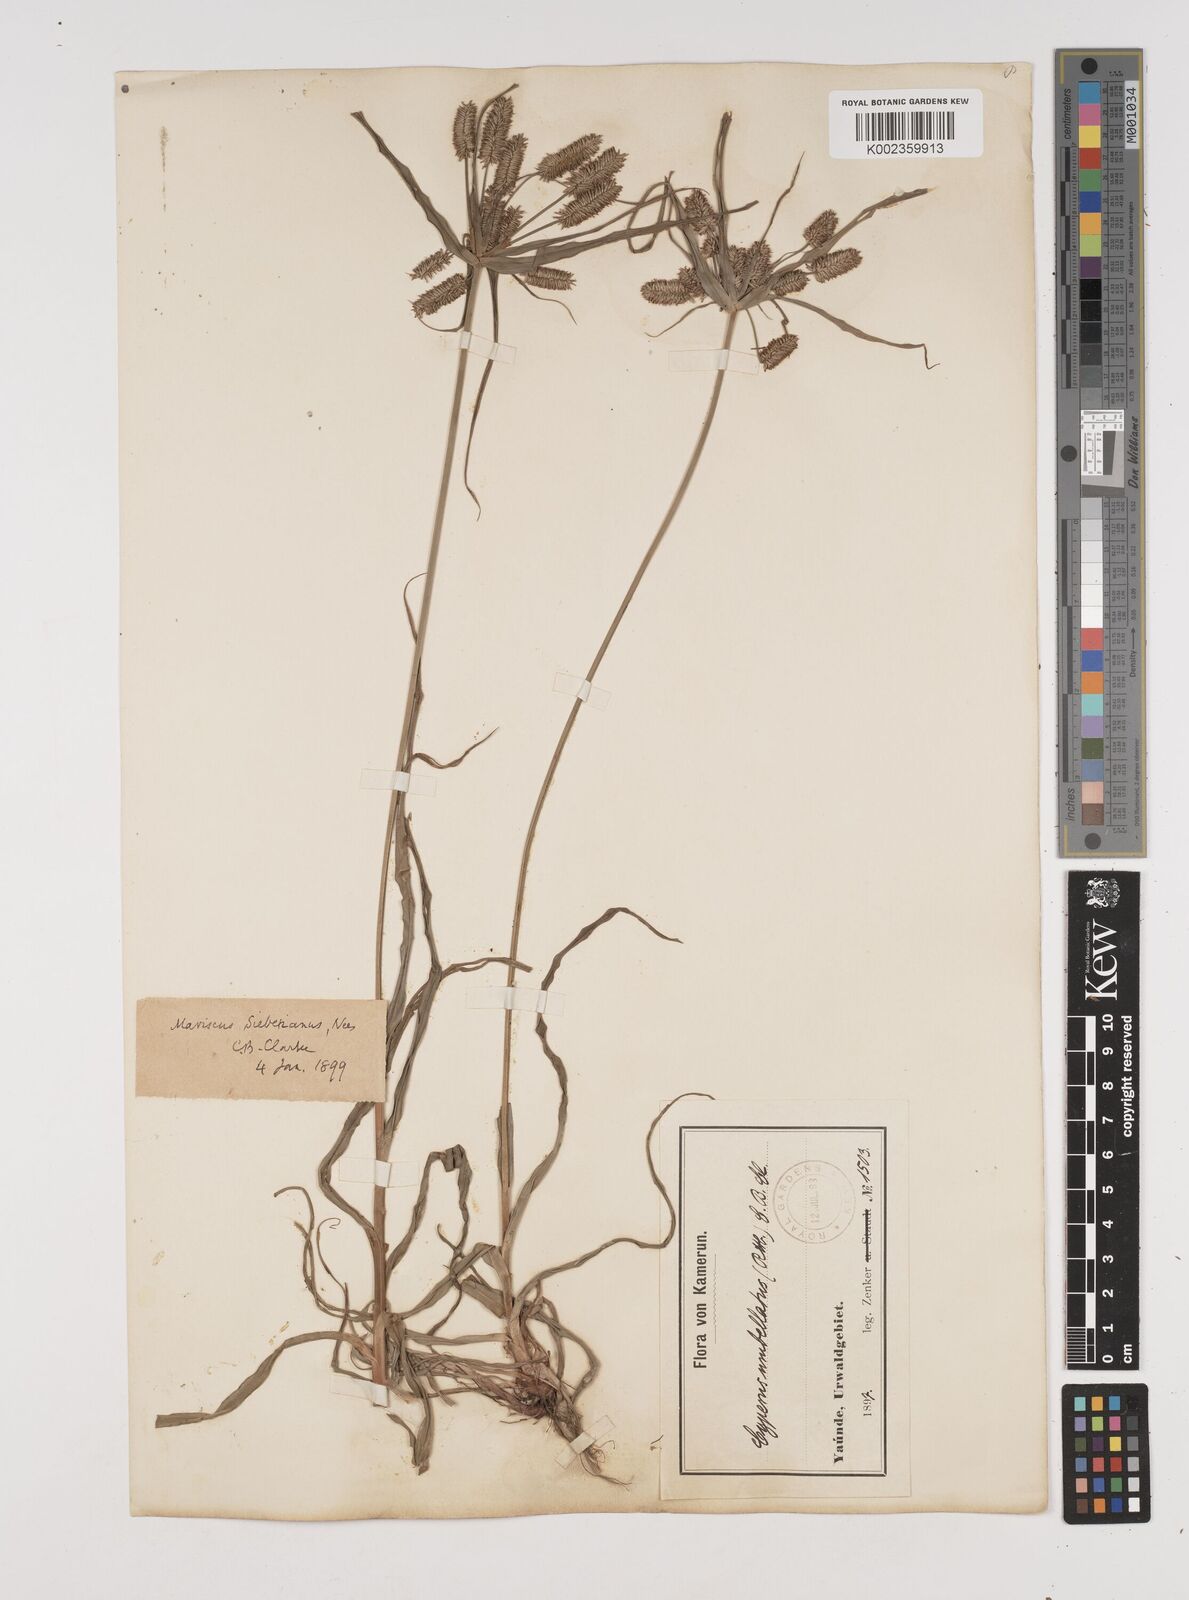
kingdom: Plantae
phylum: Tracheophyta
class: Liliopsida
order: Poales
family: Cyperaceae
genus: Cyperus
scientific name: Cyperus cyperoides
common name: Pacific island flat sedge
